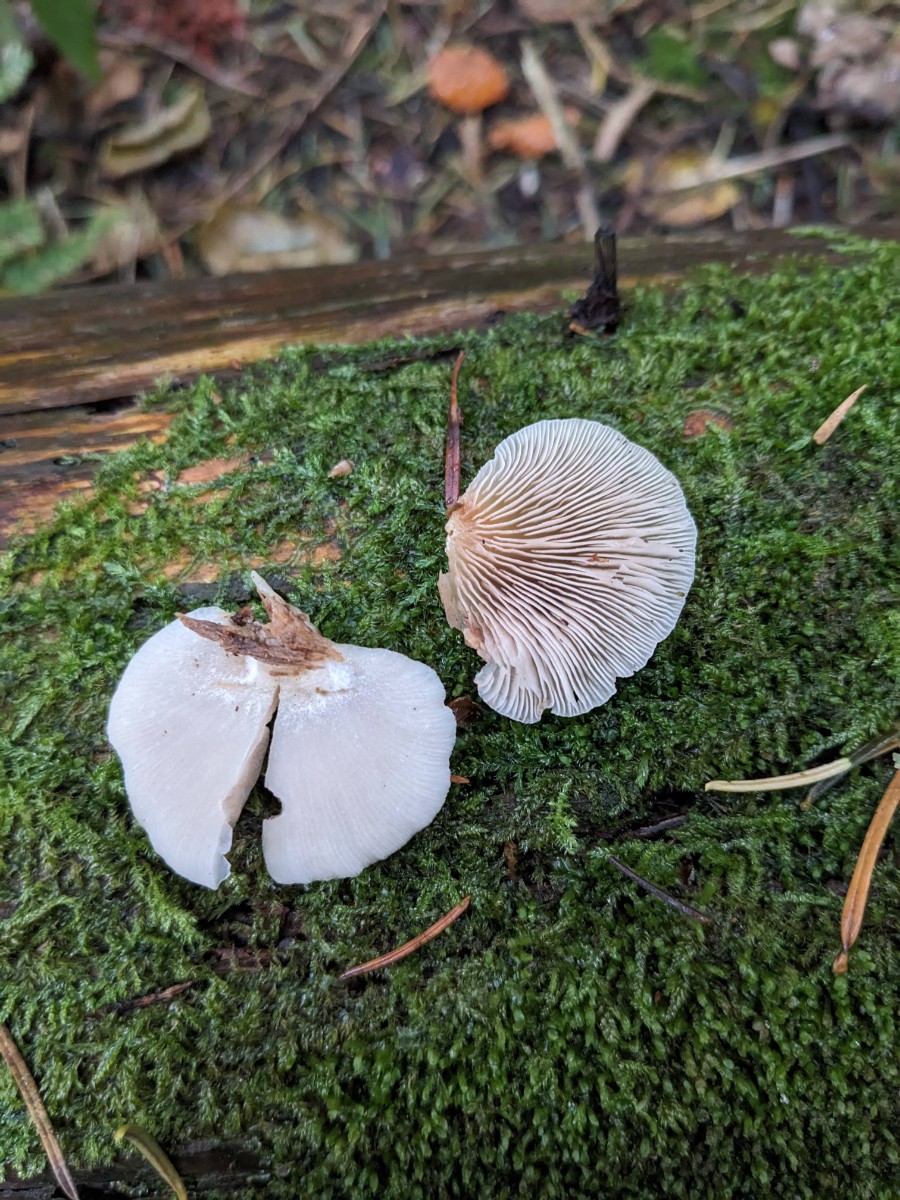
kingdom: Fungi
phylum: Basidiomycota
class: Agaricomycetes
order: Agaricales
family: Crepidotaceae
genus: Crepidotus
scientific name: Crepidotus stenocystis
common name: nåletræs-muslingesvamp
